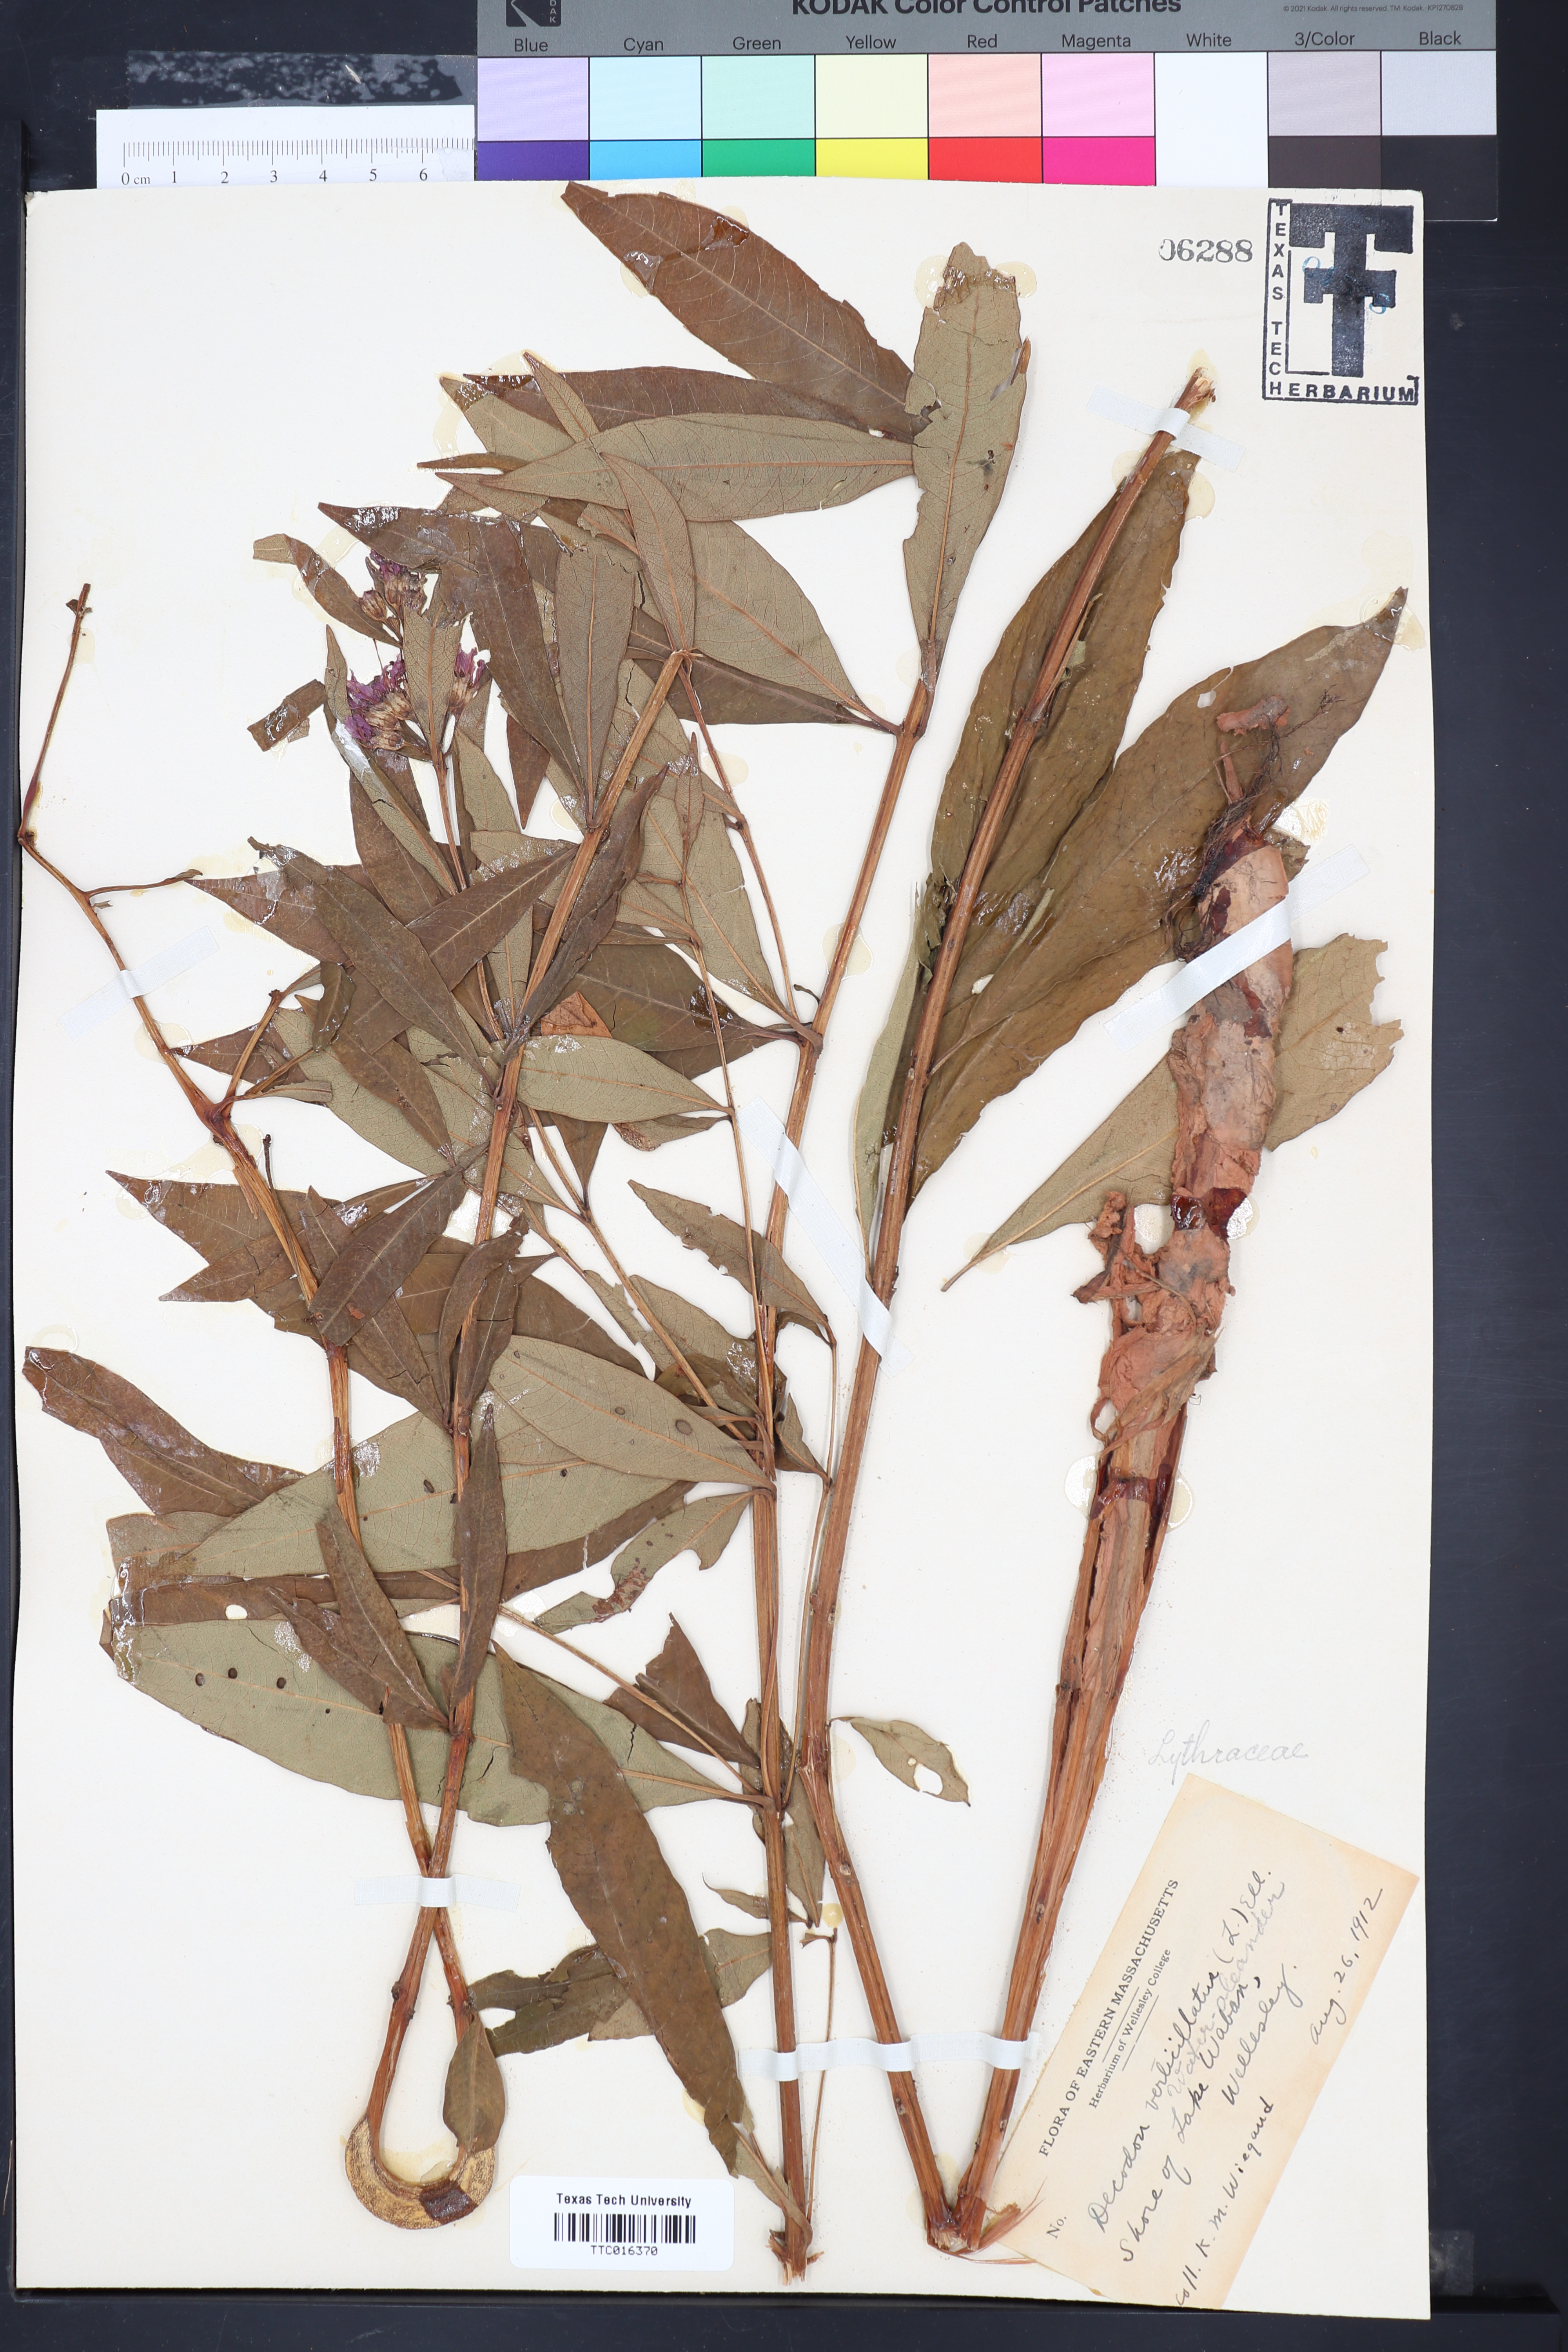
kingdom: Plantae
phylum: Tracheophyta
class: Magnoliopsida
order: Myrtales
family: Lythraceae
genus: Decodon
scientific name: Decodon
